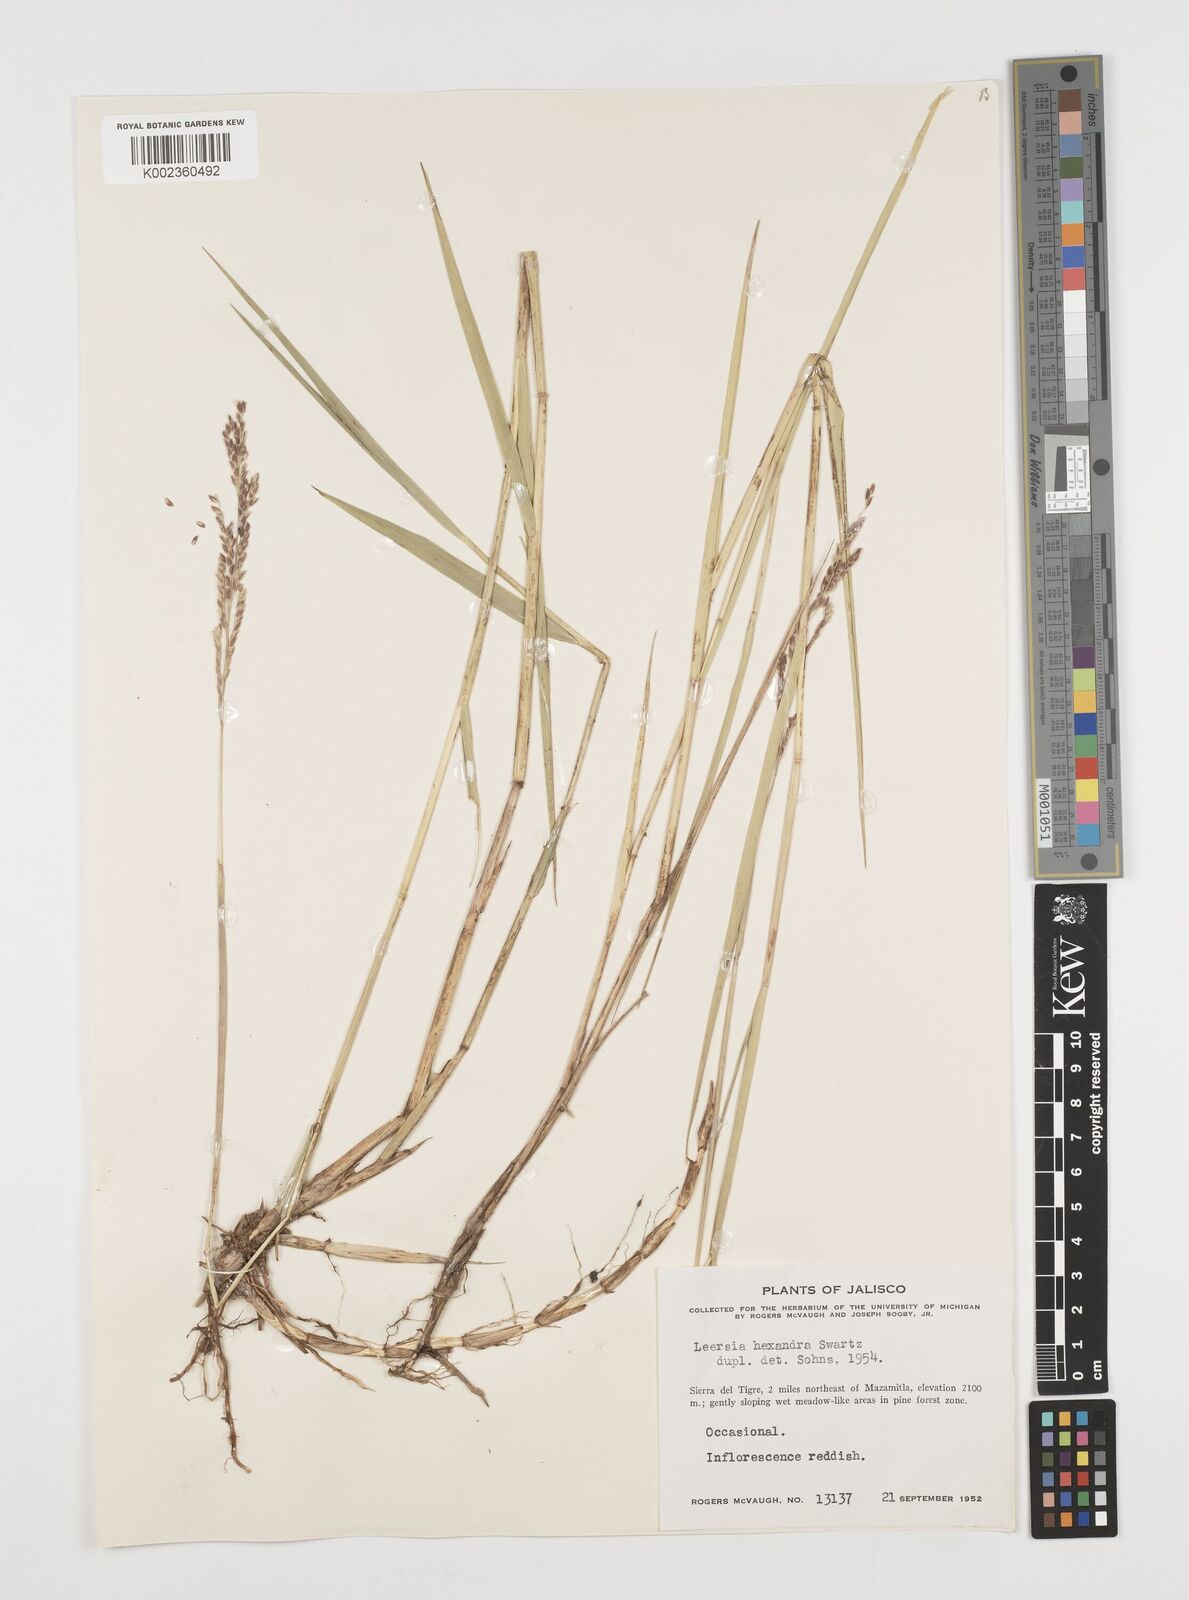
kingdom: Plantae
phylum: Tracheophyta
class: Liliopsida
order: Poales
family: Poaceae
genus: Leersia
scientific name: Leersia hexandra
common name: Southern cut grass
